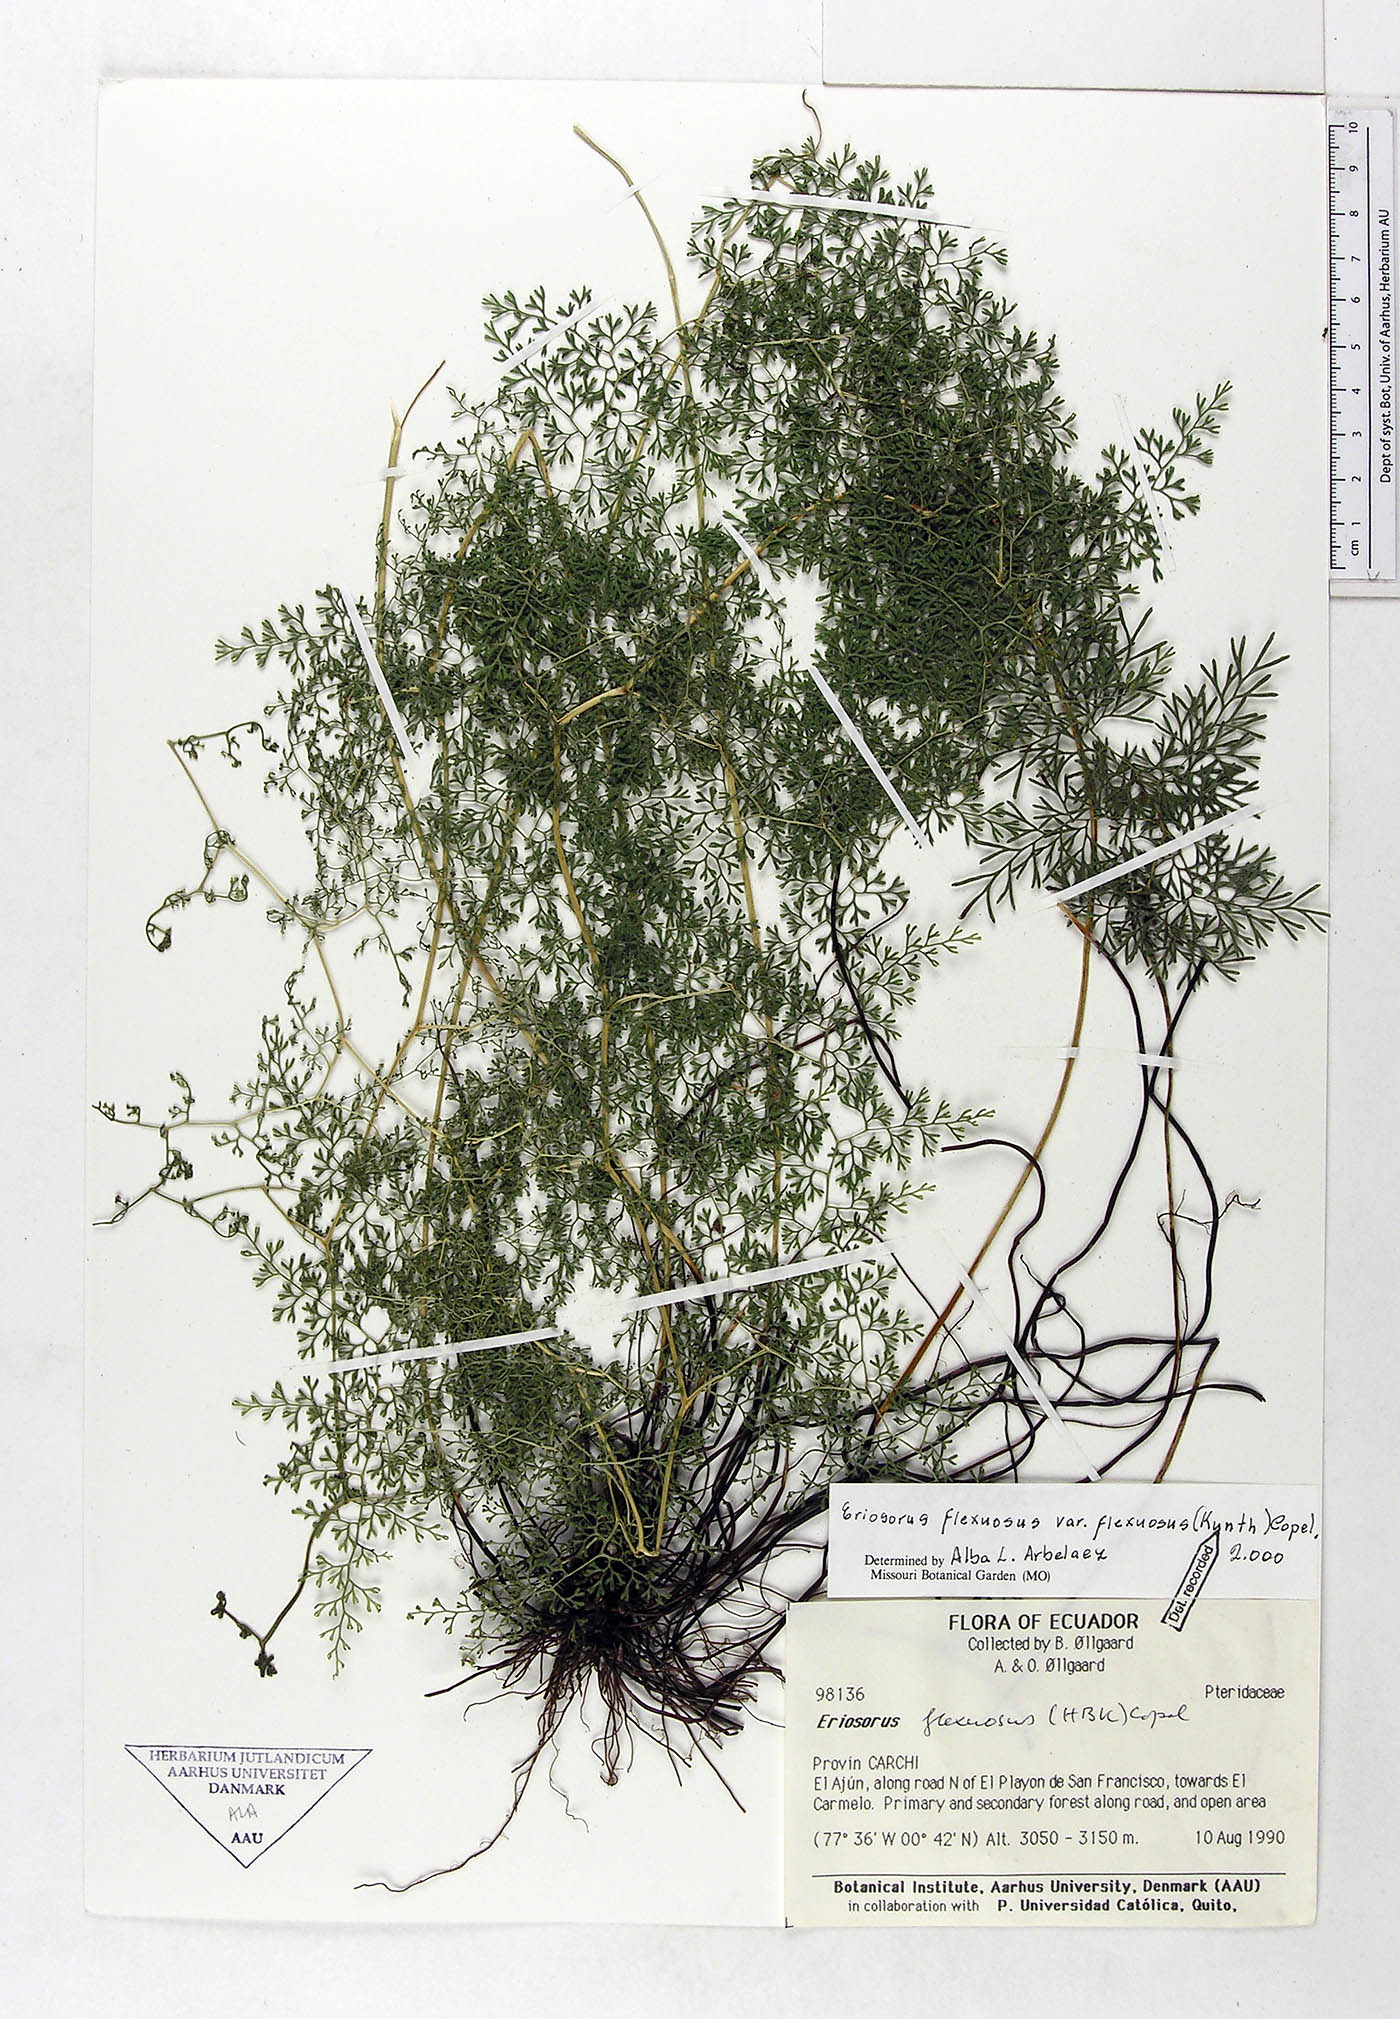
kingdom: Plantae
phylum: Tracheophyta
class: Polypodiopsida
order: Polypodiales
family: Pteridaceae
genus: Jamesonia
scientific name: Jamesonia flexuosa
